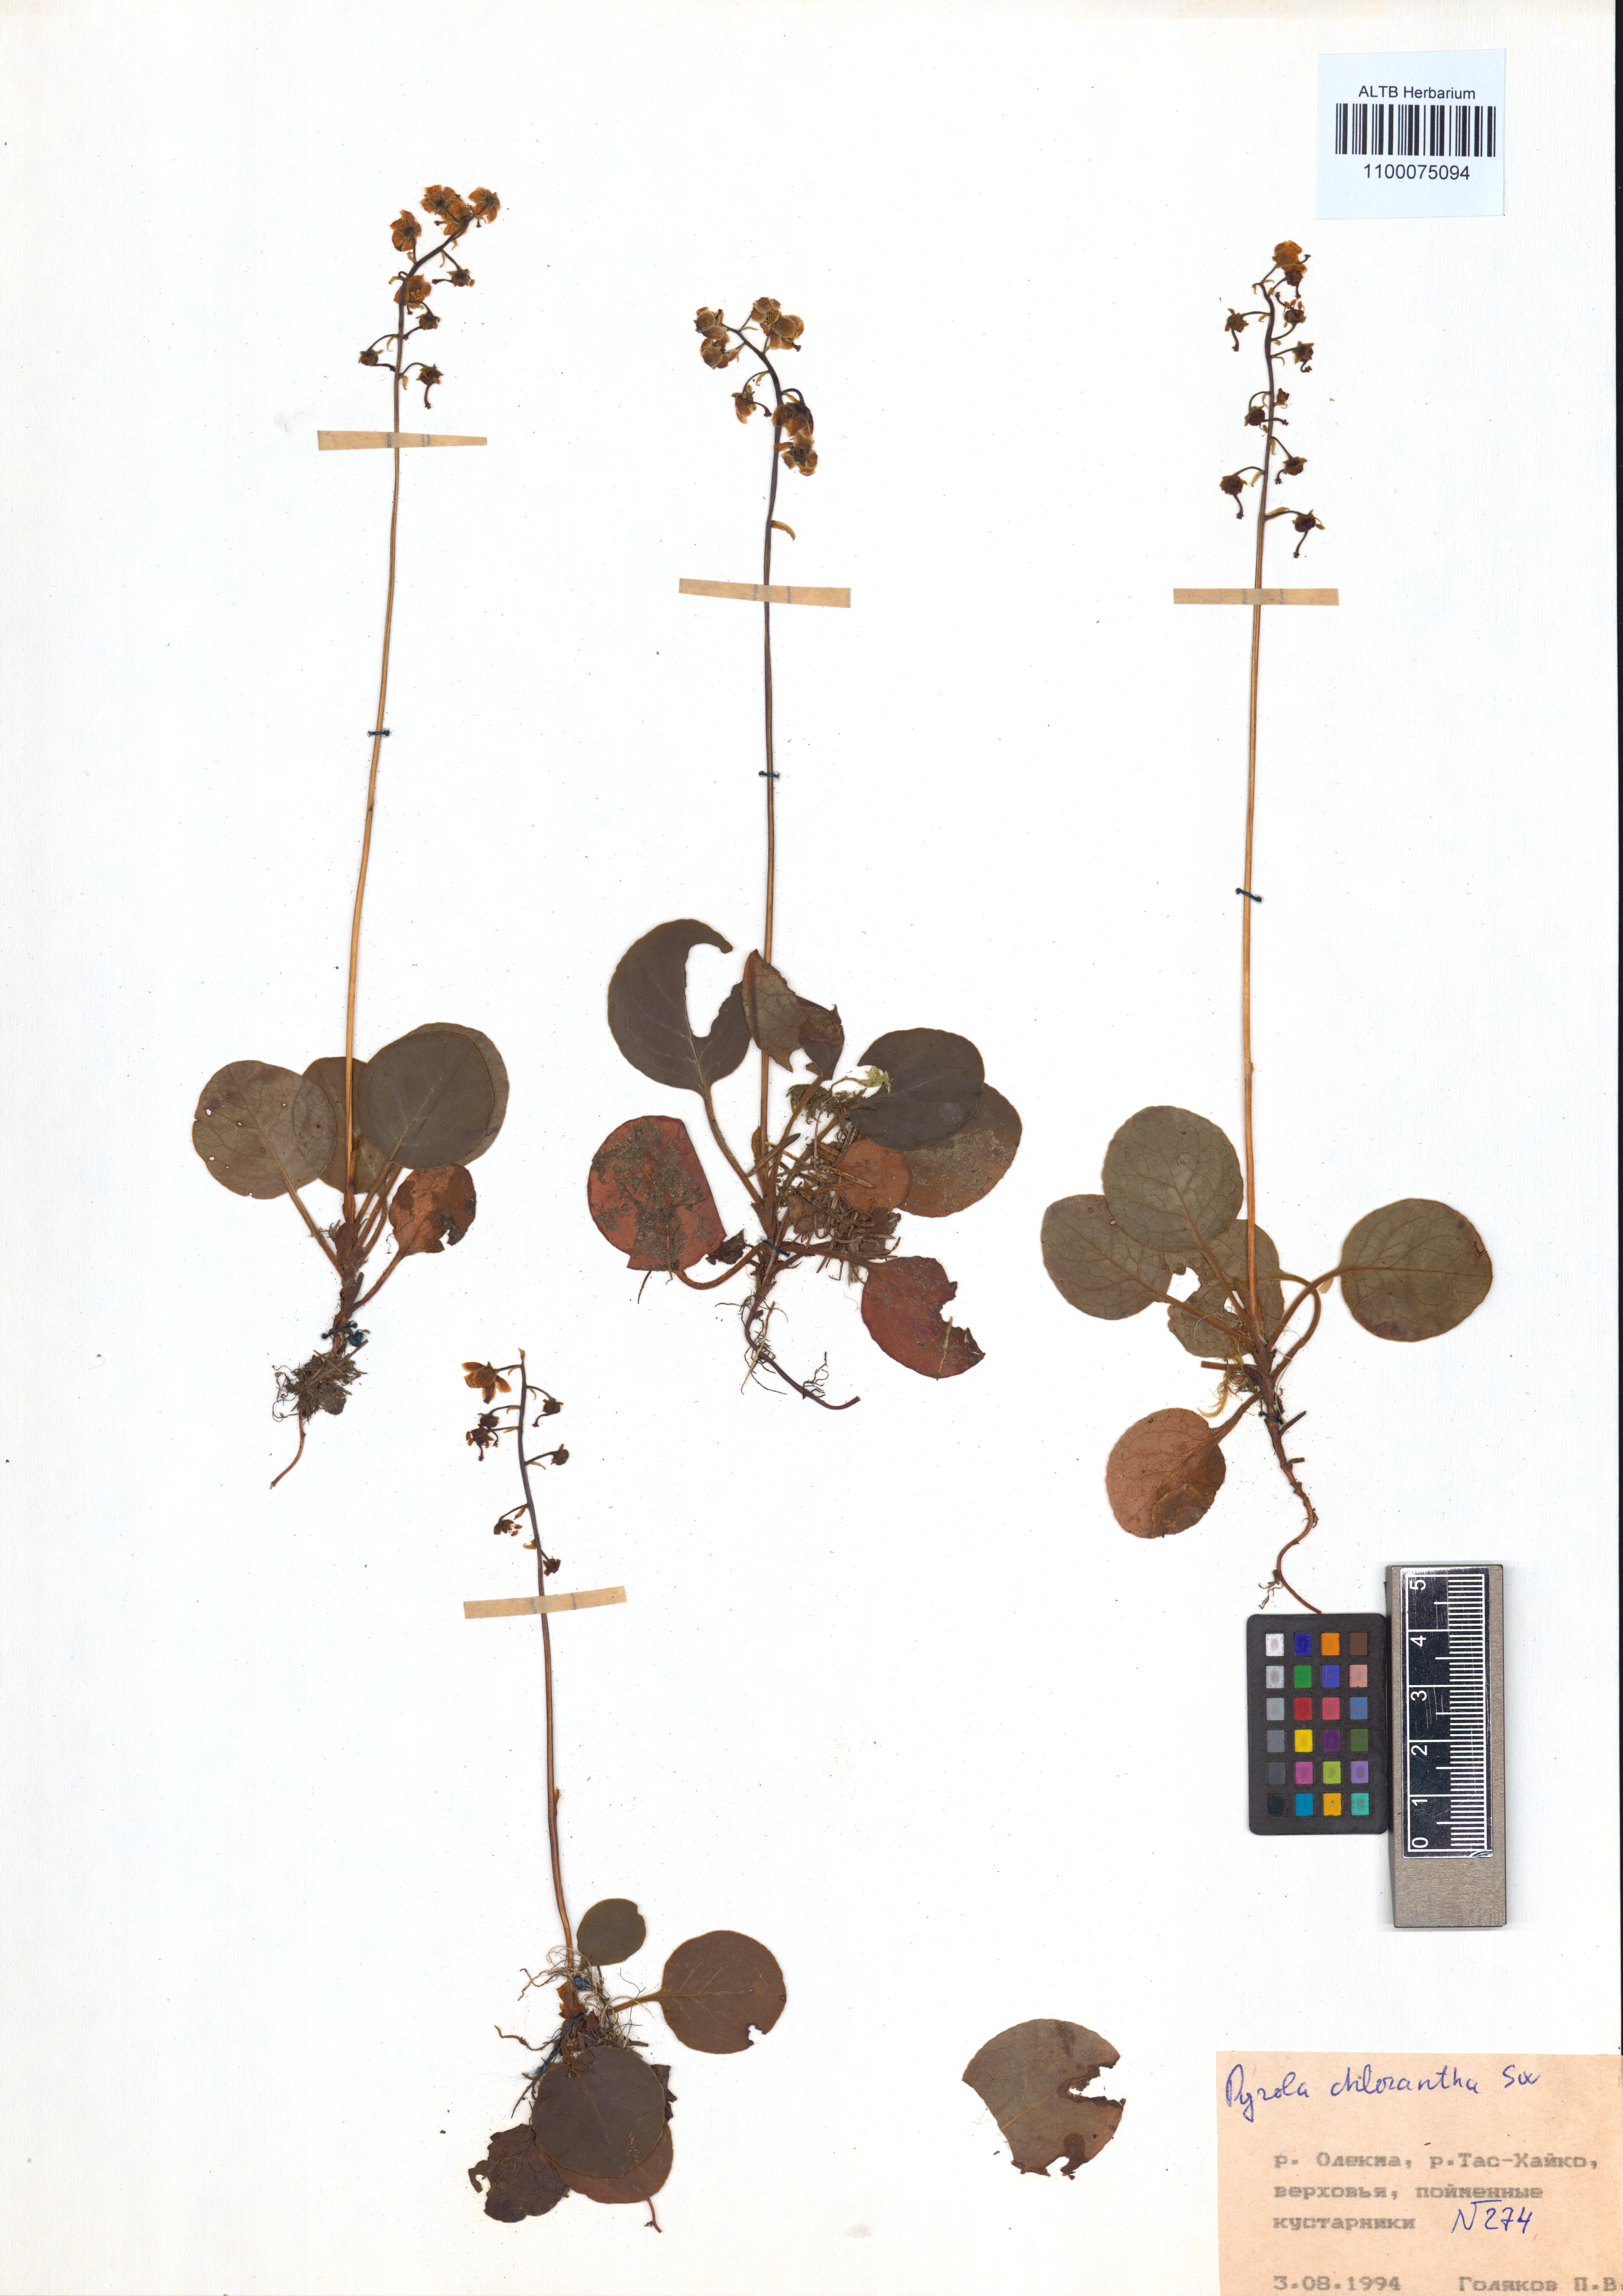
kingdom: Plantae
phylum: Tracheophyta
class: Magnoliopsida
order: Ericales
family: Ericaceae
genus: Pyrola
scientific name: Pyrola chlorantha
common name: Green wintergreen
